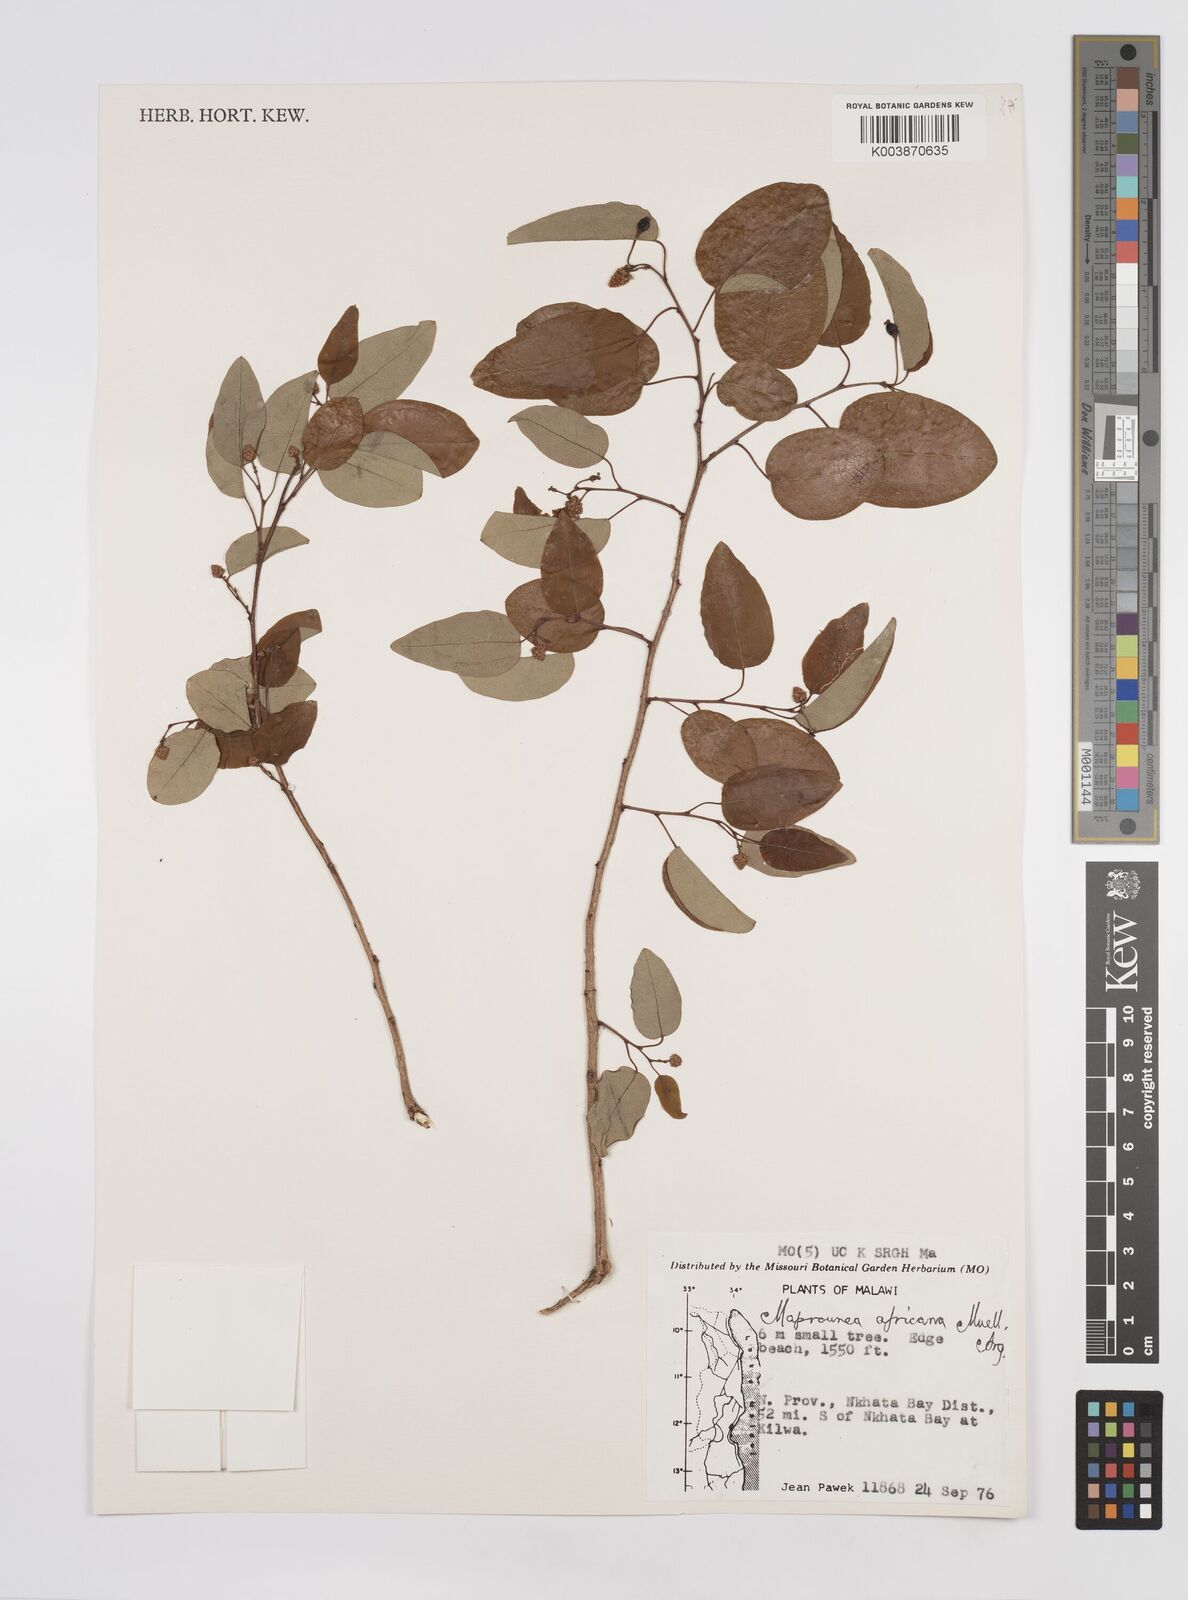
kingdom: Plantae
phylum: Tracheophyta
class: Magnoliopsida
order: Malpighiales
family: Euphorbiaceae
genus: Maprounea
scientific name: Maprounea africana
